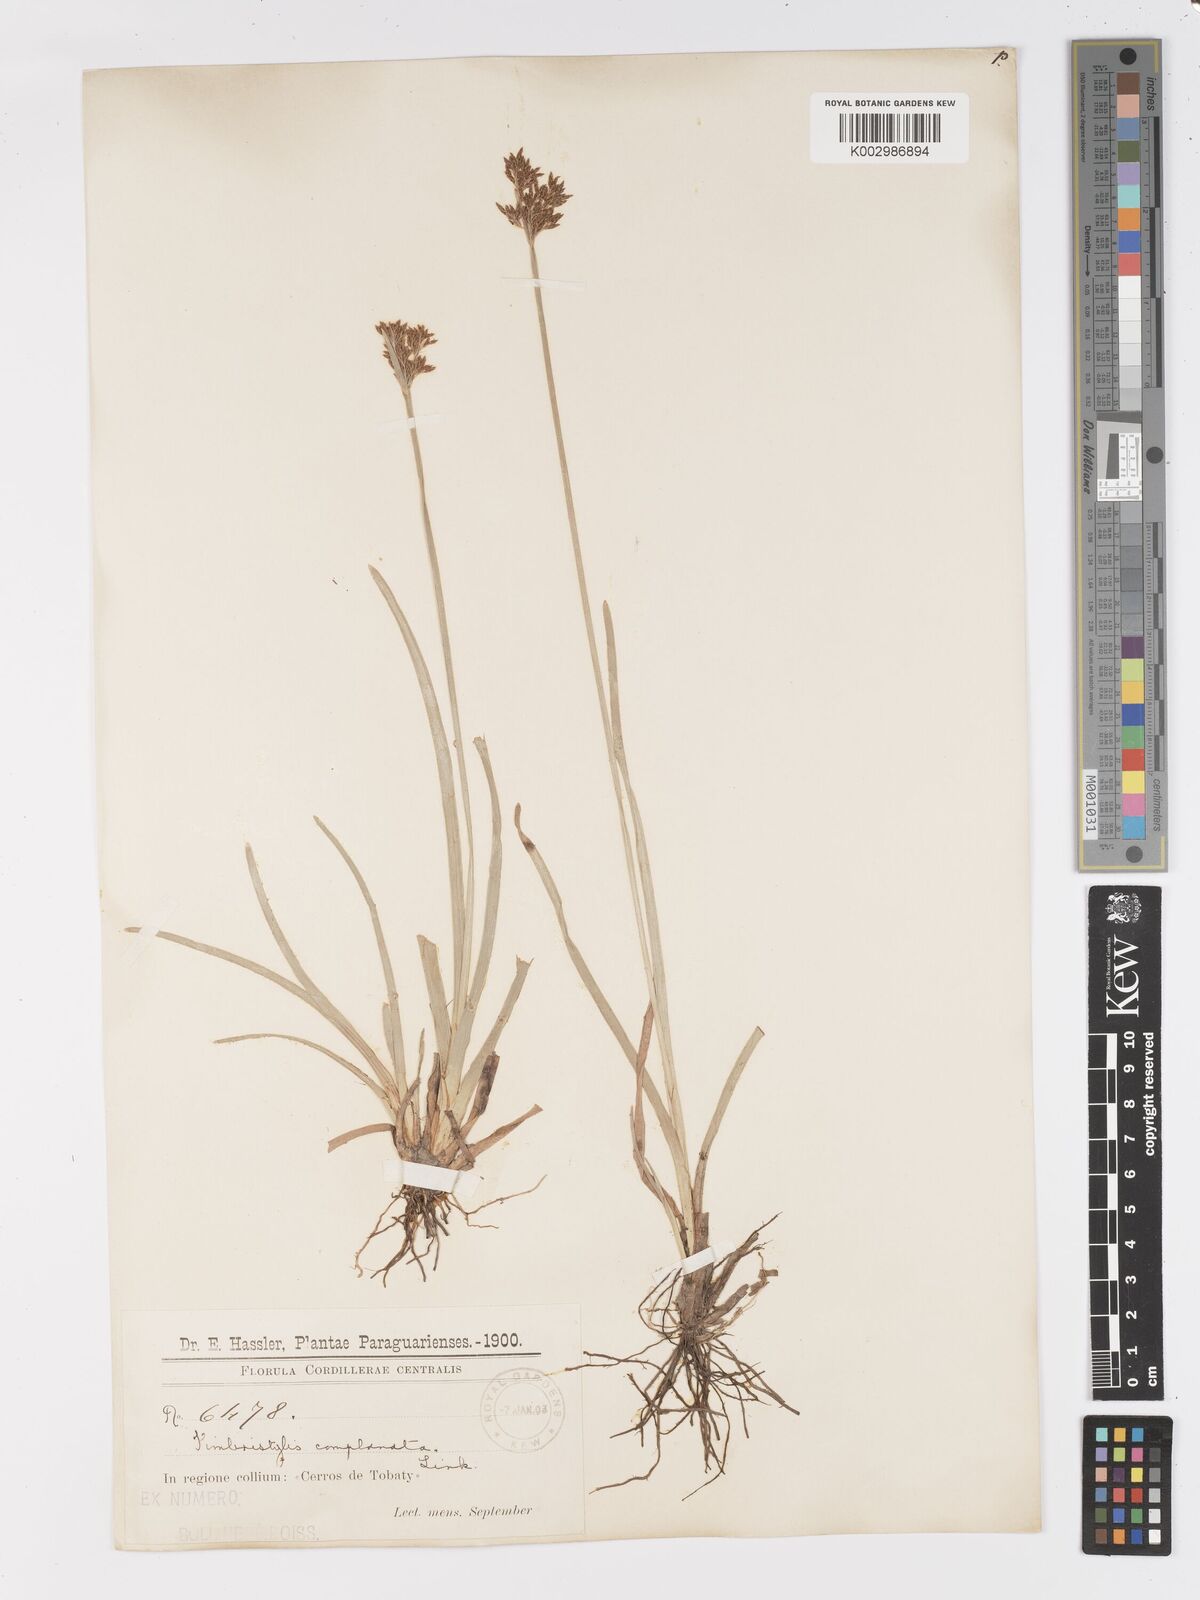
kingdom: Plantae
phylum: Tracheophyta
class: Liliopsida
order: Poales
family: Cyperaceae
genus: Fimbristylis
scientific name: Fimbristylis complanata
